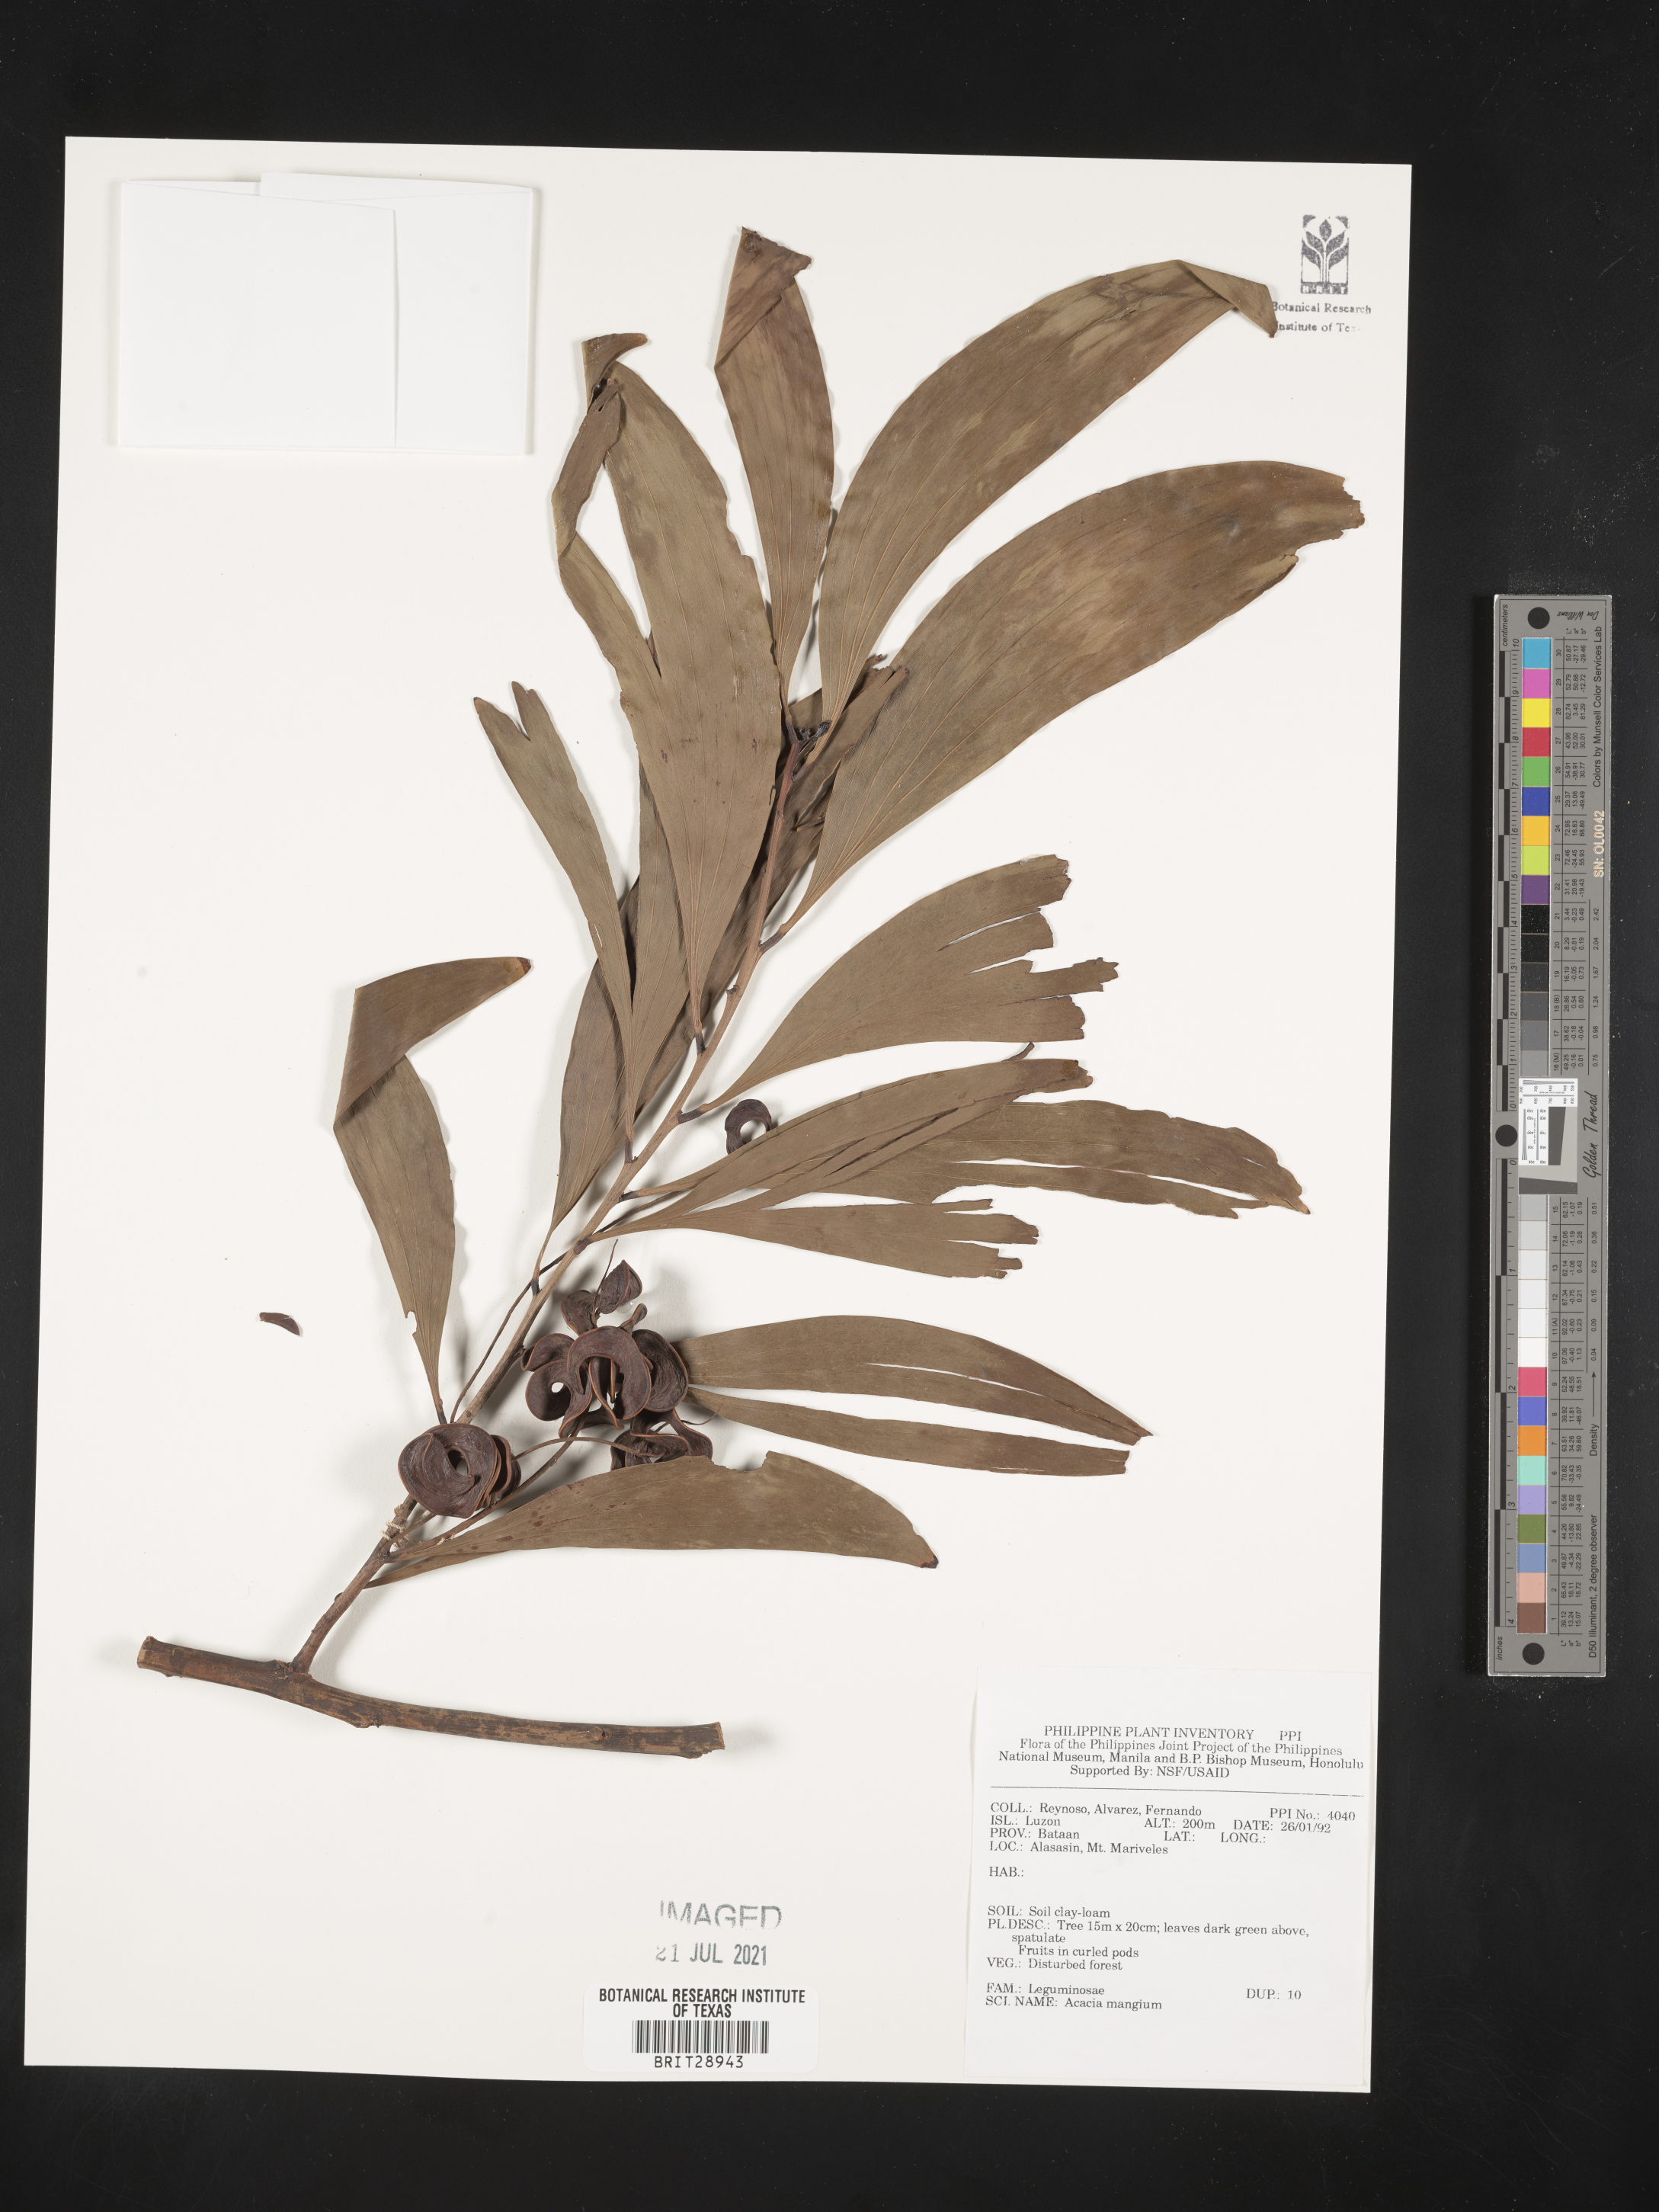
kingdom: Plantae
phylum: Tracheophyta
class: Magnoliopsida
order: Fabales
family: Fabaceae
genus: Acacia
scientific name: Acacia mangium
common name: Black wattle
